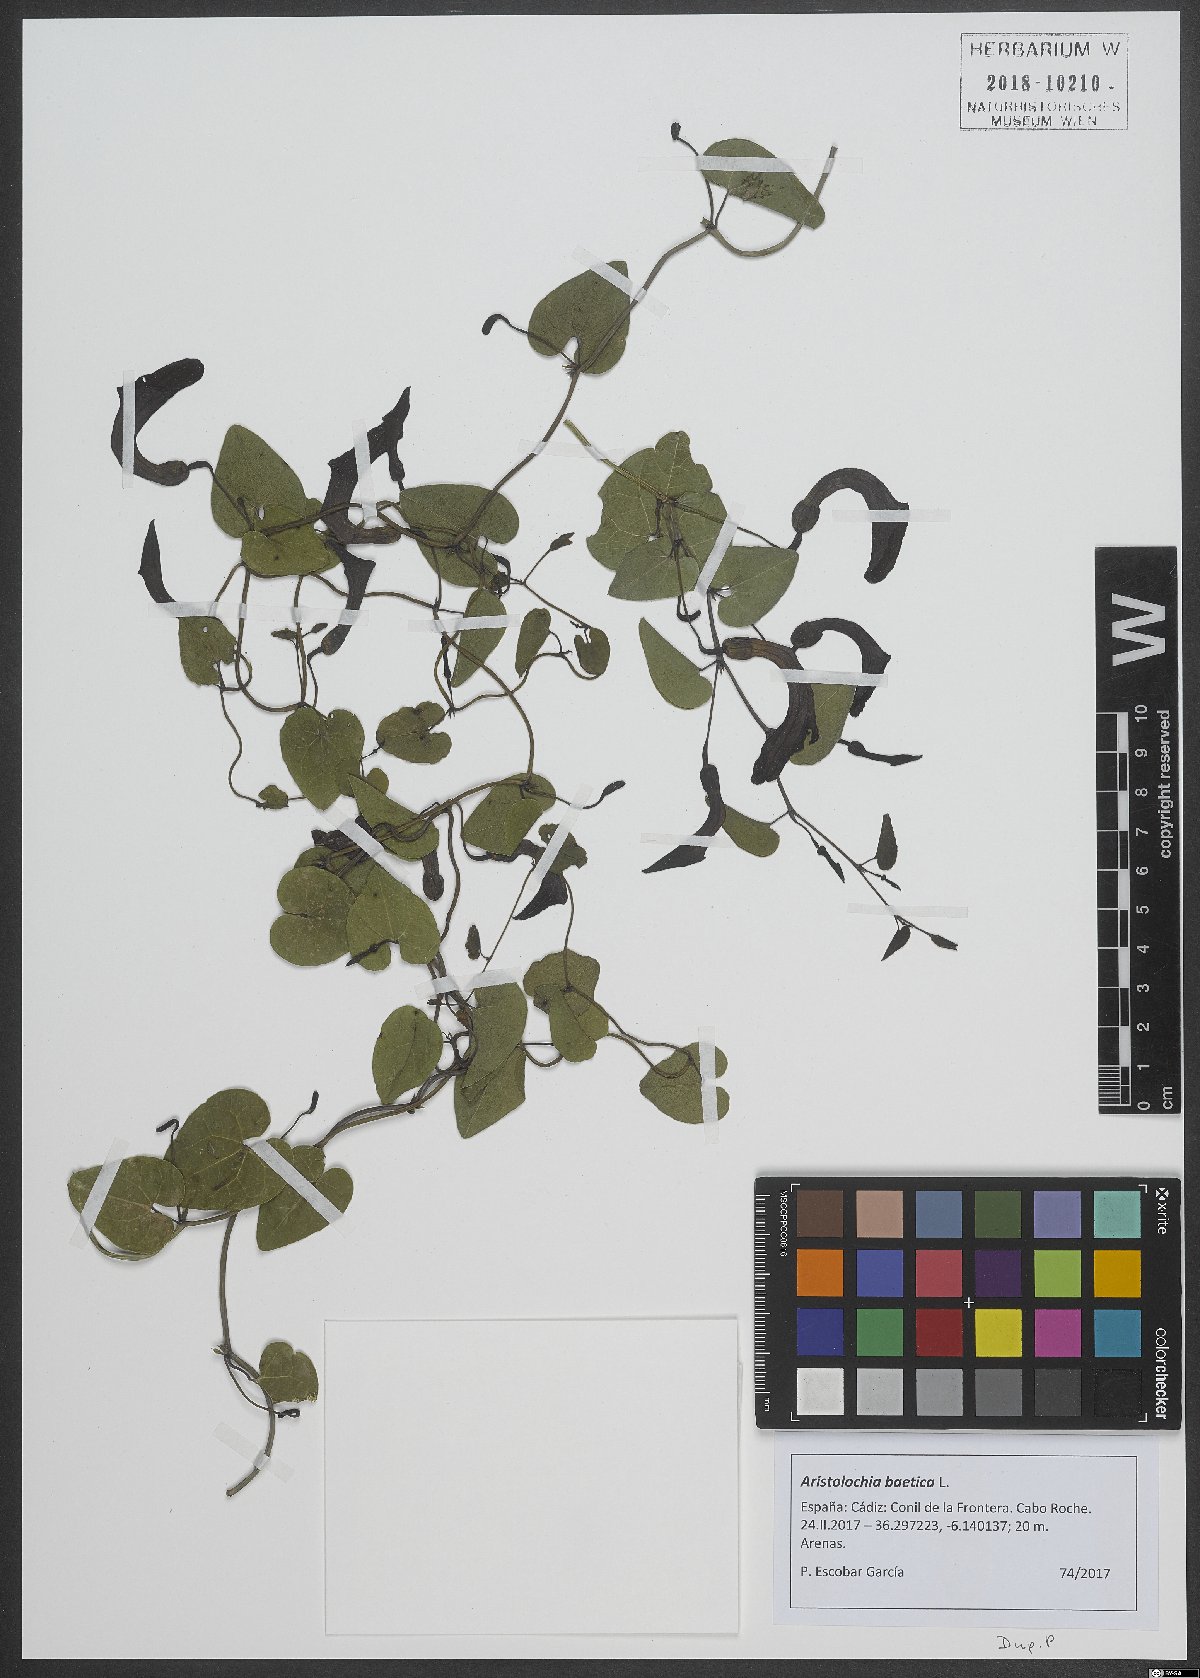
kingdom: Plantae
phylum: Tracheophyta
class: Magnoliopsida
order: Piperales
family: Aristolochiaceae
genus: Aristolochia
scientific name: Aristolochia baetica
